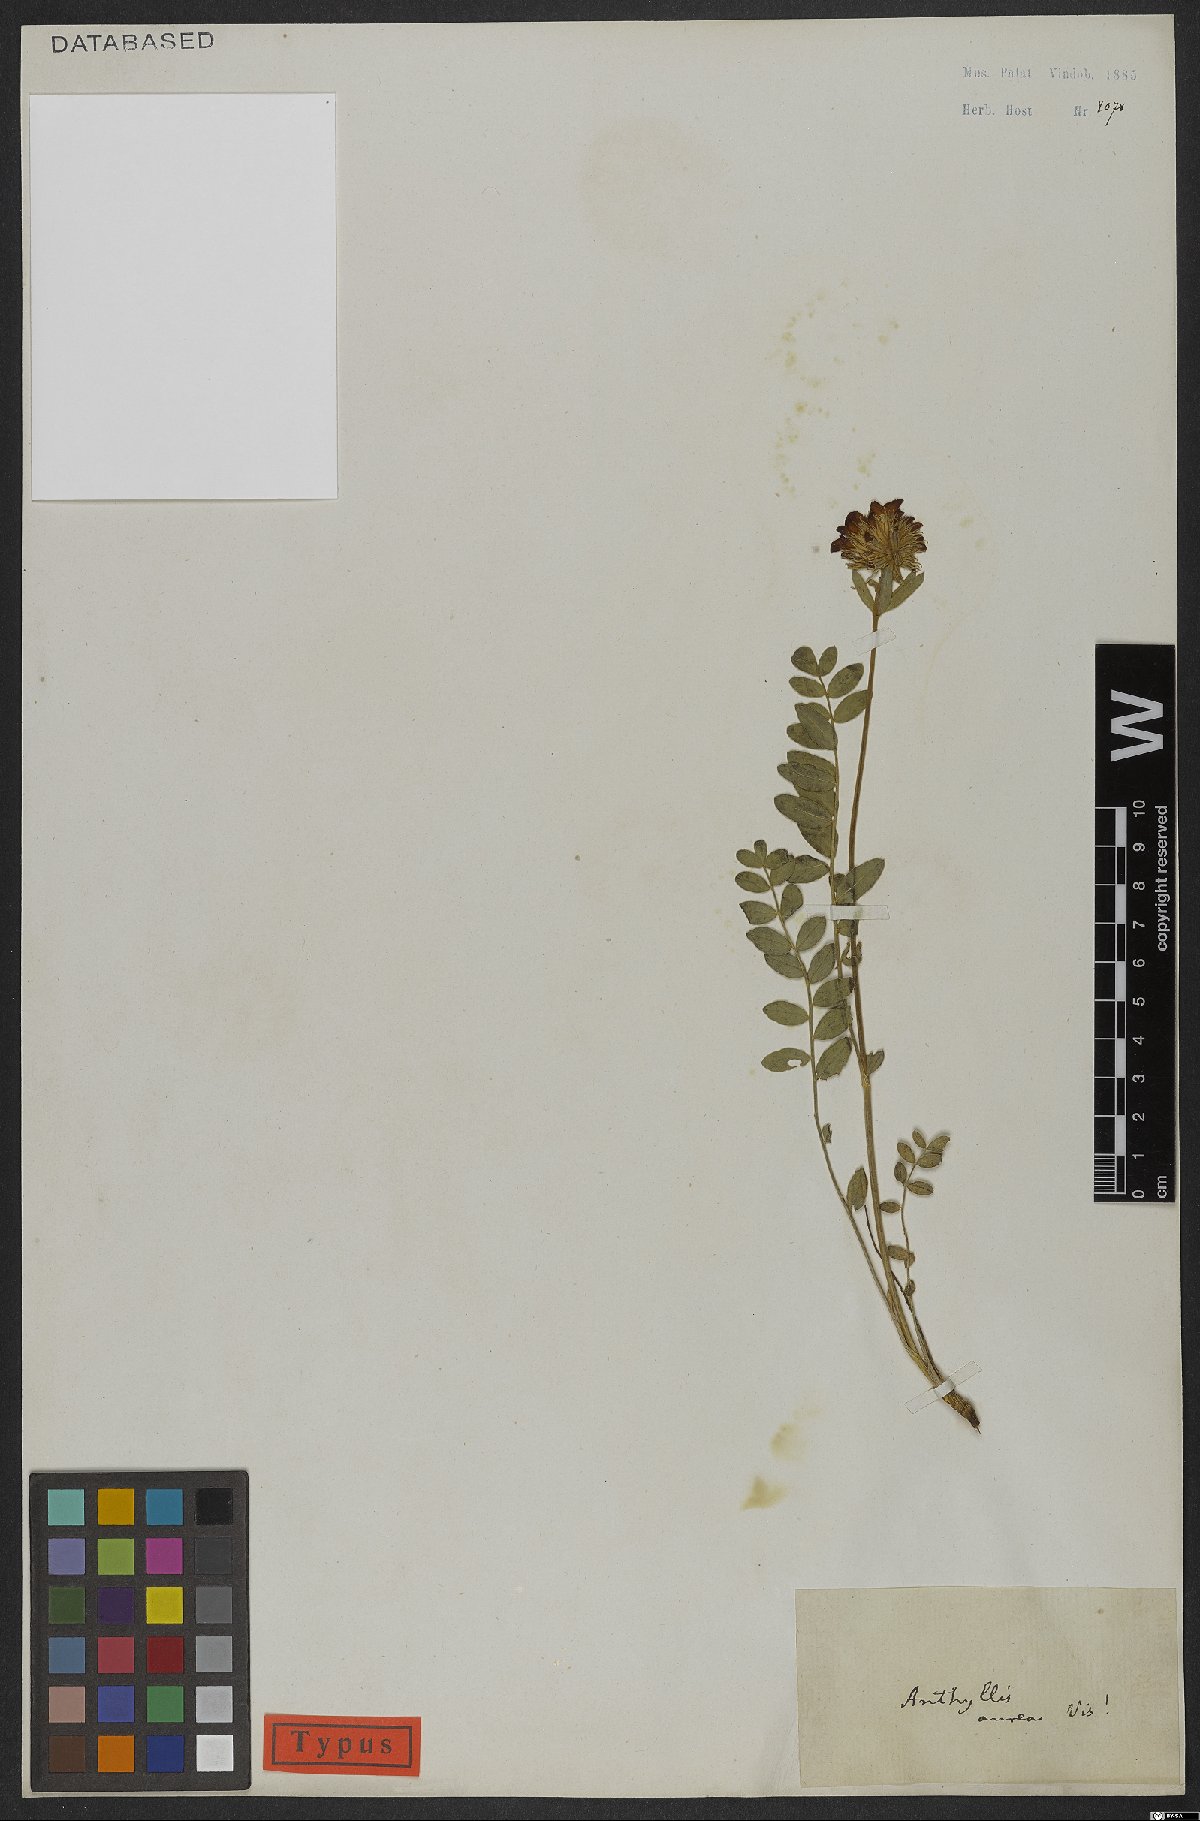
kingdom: Plantae
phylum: Tracheophyta
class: Magnoliopsida
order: Fabales
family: Fabaceae
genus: Anthyllis
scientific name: Anthyllis aurea
